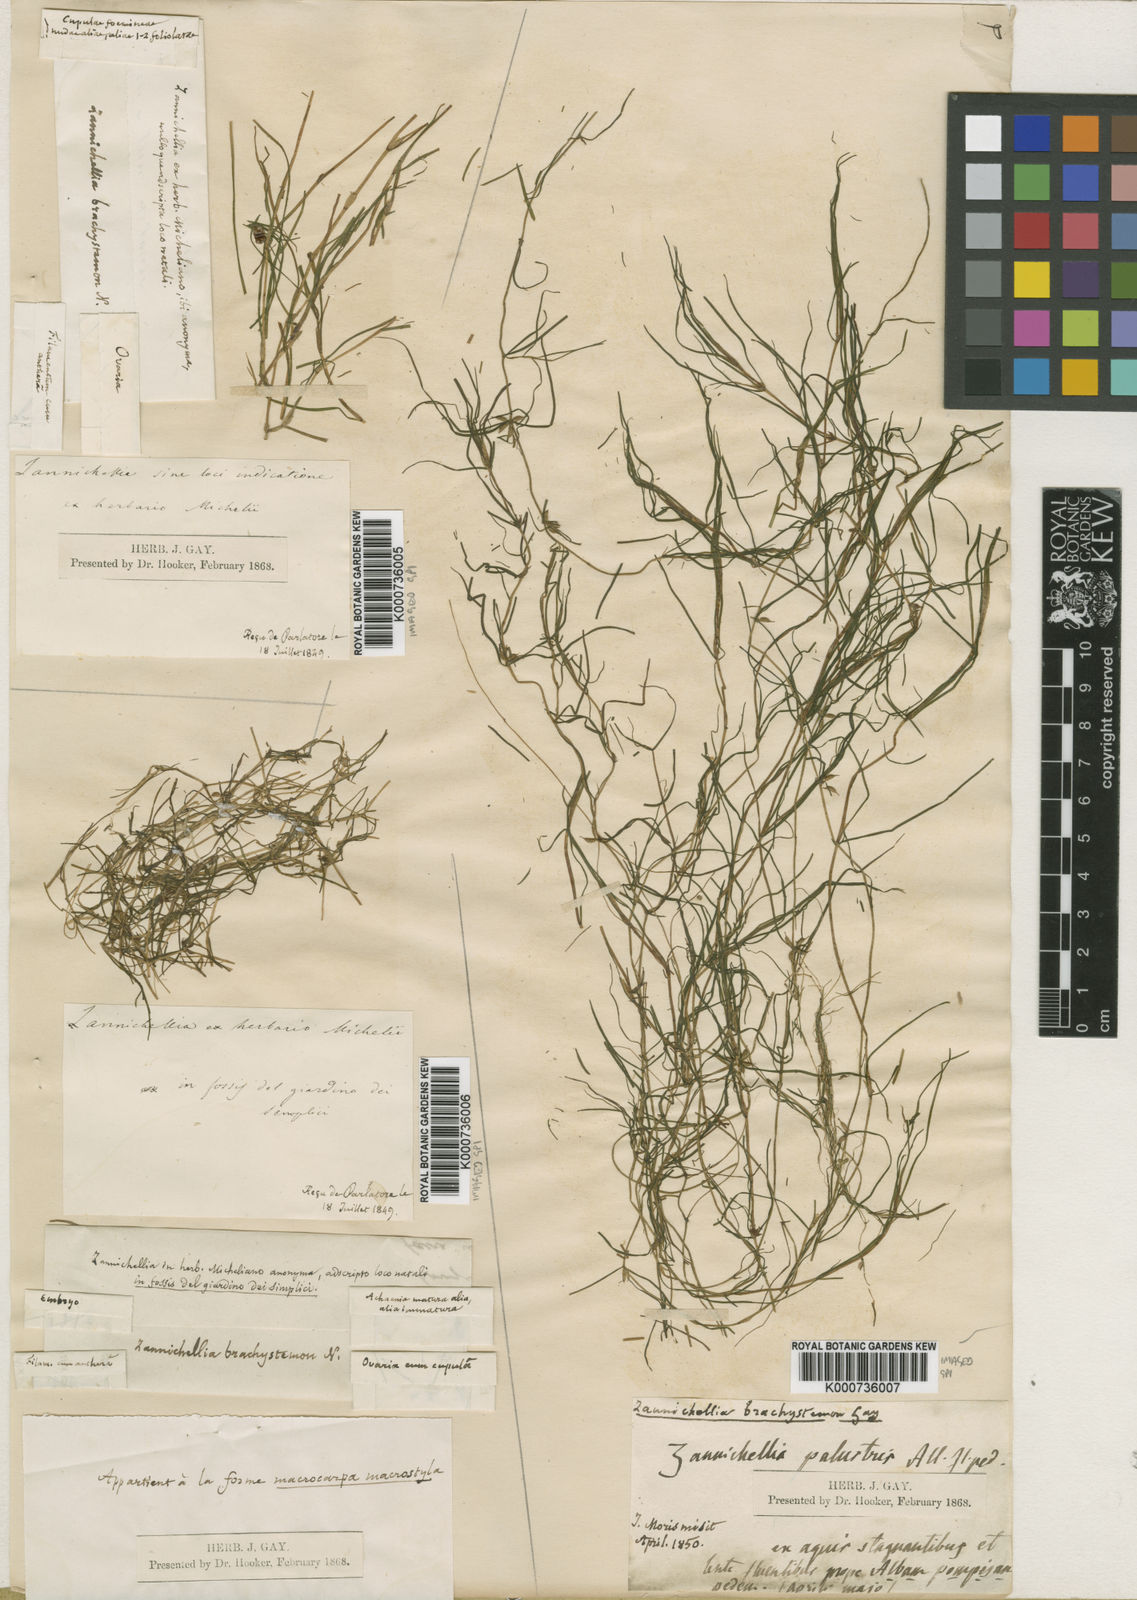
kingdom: Plantae
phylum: Tracheophyta
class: Liliopsida
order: Alismatales
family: Potamogetonaceae
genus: Zannichellia
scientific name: Zannichellia palustris
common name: Horned pondweed
